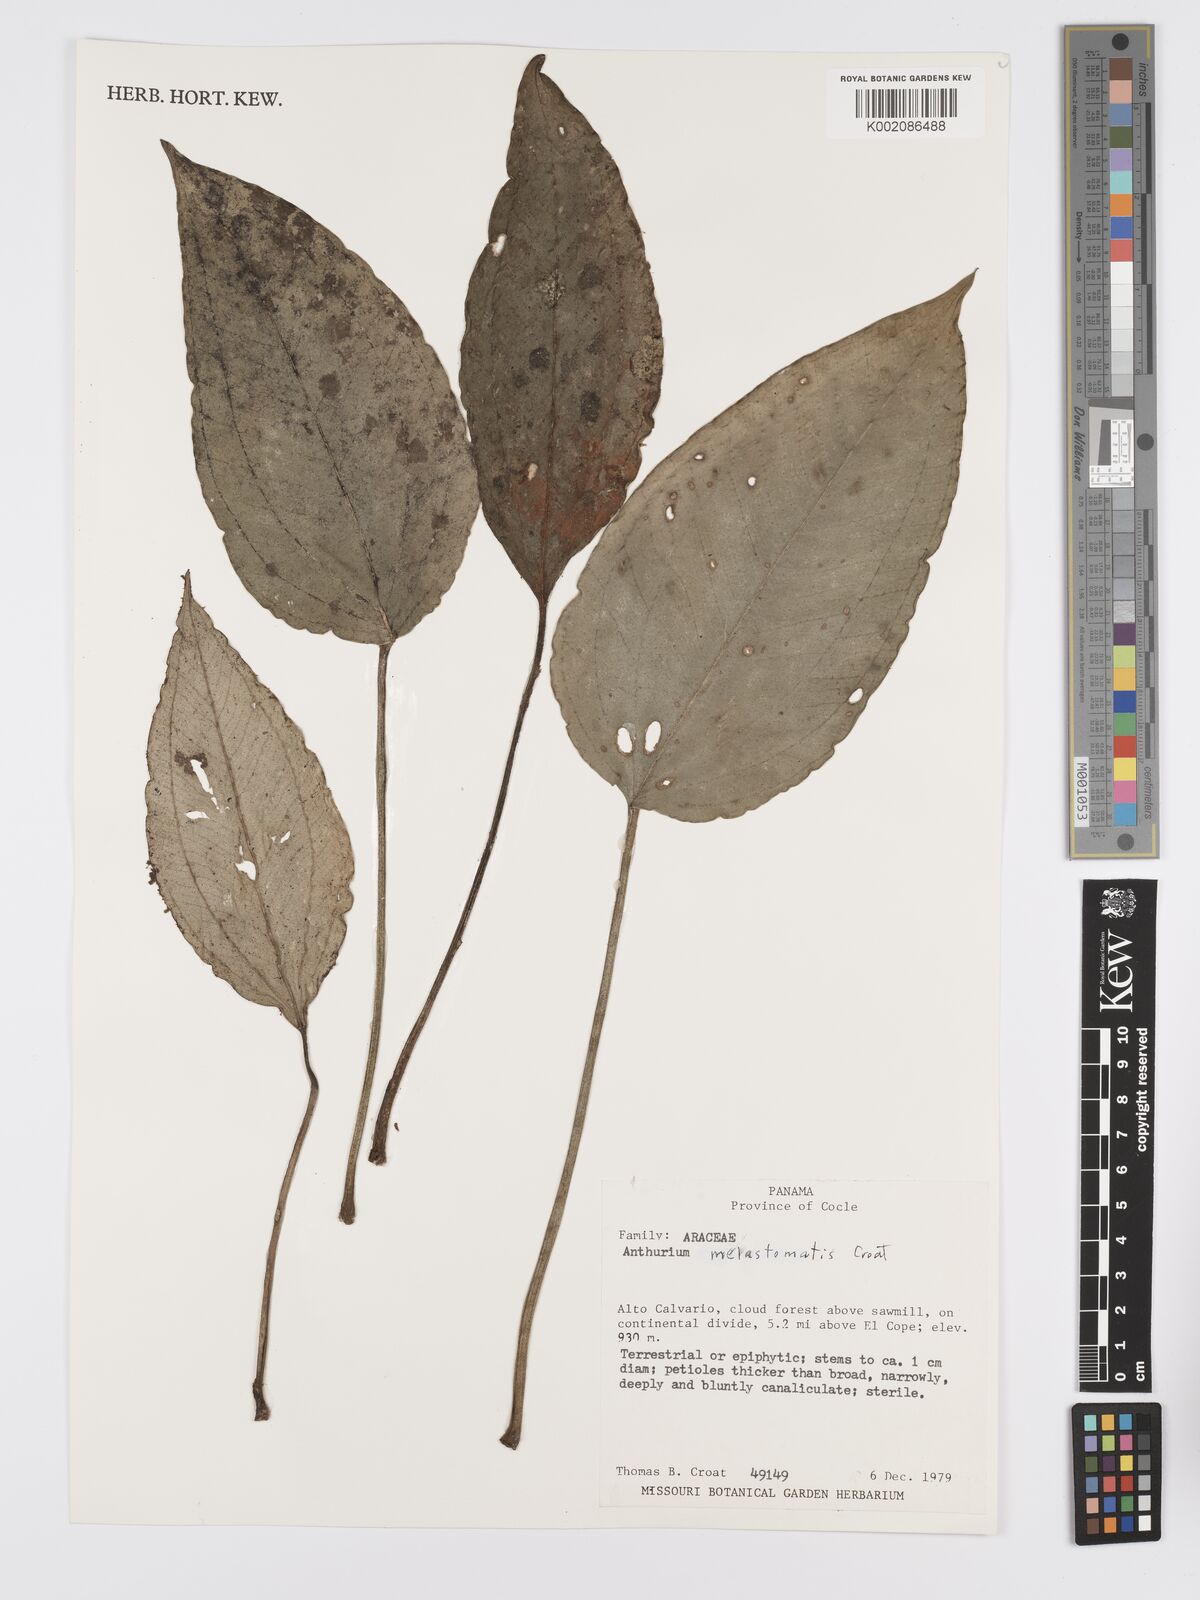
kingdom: Plantae
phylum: Tracheophyta
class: Liliopsida
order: Alismatales
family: Araceae
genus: Anthurium
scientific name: Anthurium melastomatis
